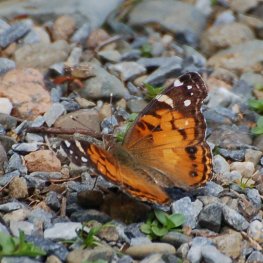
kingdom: Animalia
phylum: Arthropoda
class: Insecta
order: Lepidoptera
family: Nymphalidae
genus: Vanessa
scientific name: Vanessa virginiensis
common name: American Lady
